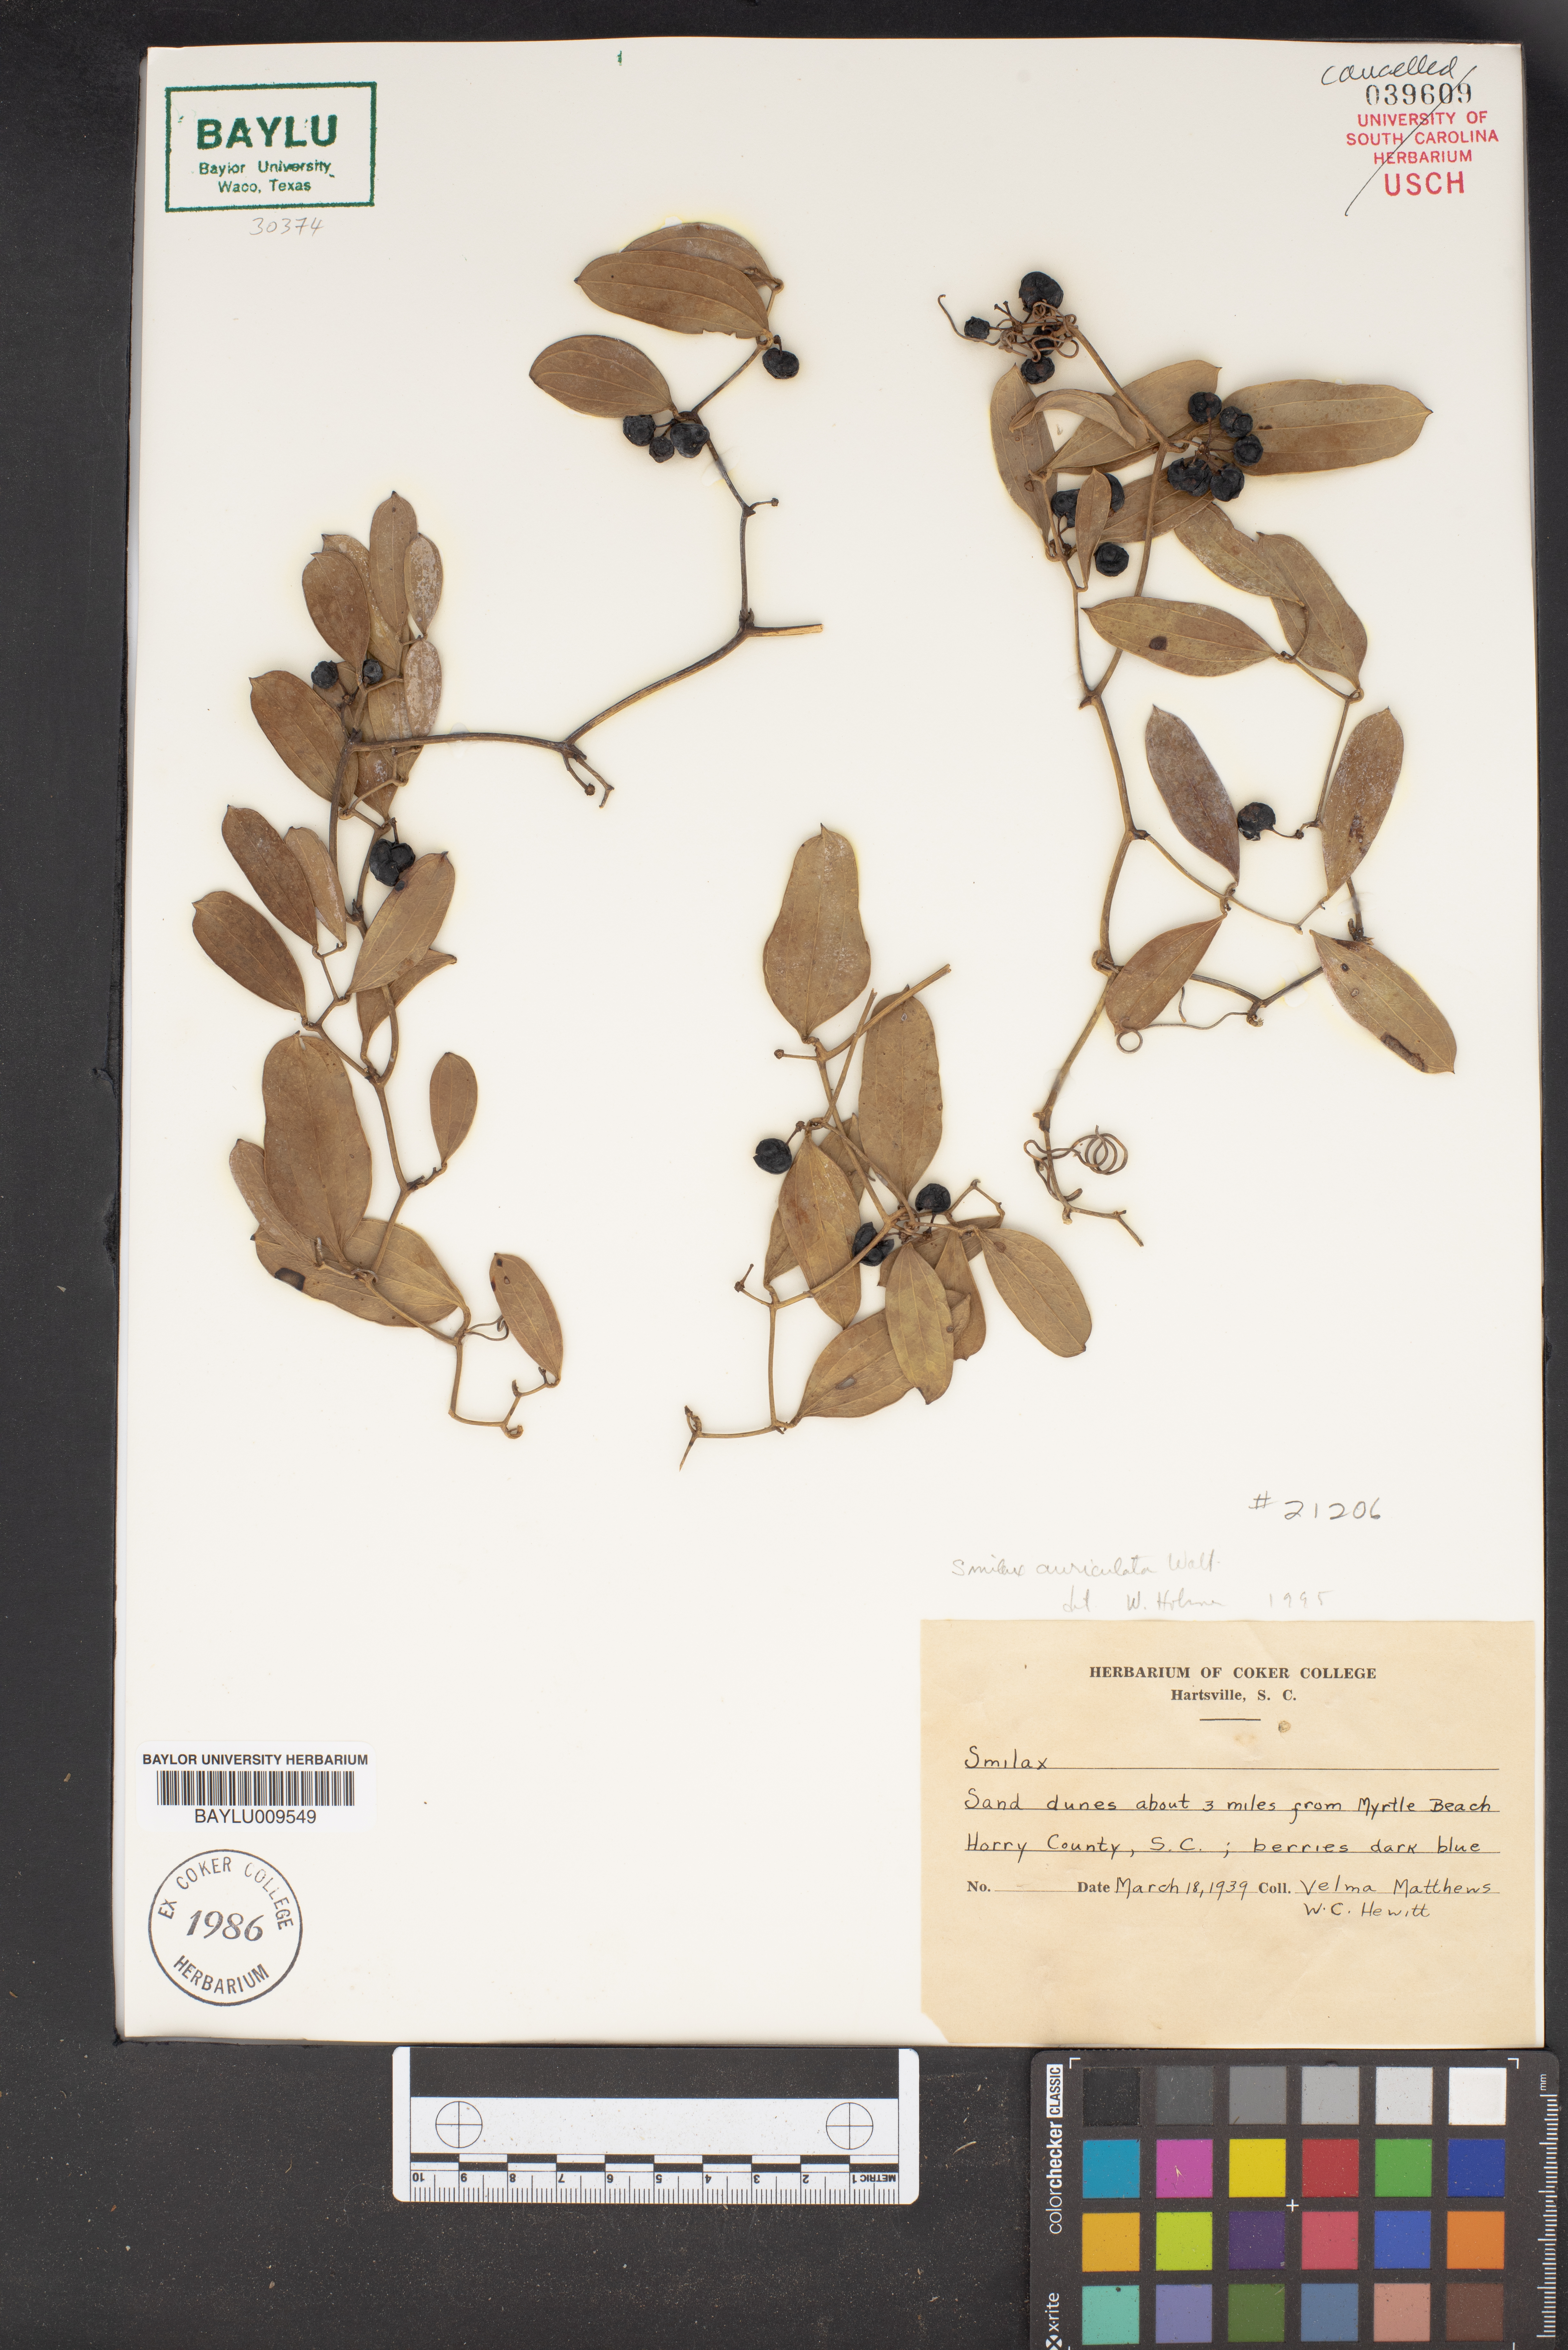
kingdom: Plantae
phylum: Tracheophyta
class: Liliopsida
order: Liliales
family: Smilacaceae
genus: Smilax
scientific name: Smilax
